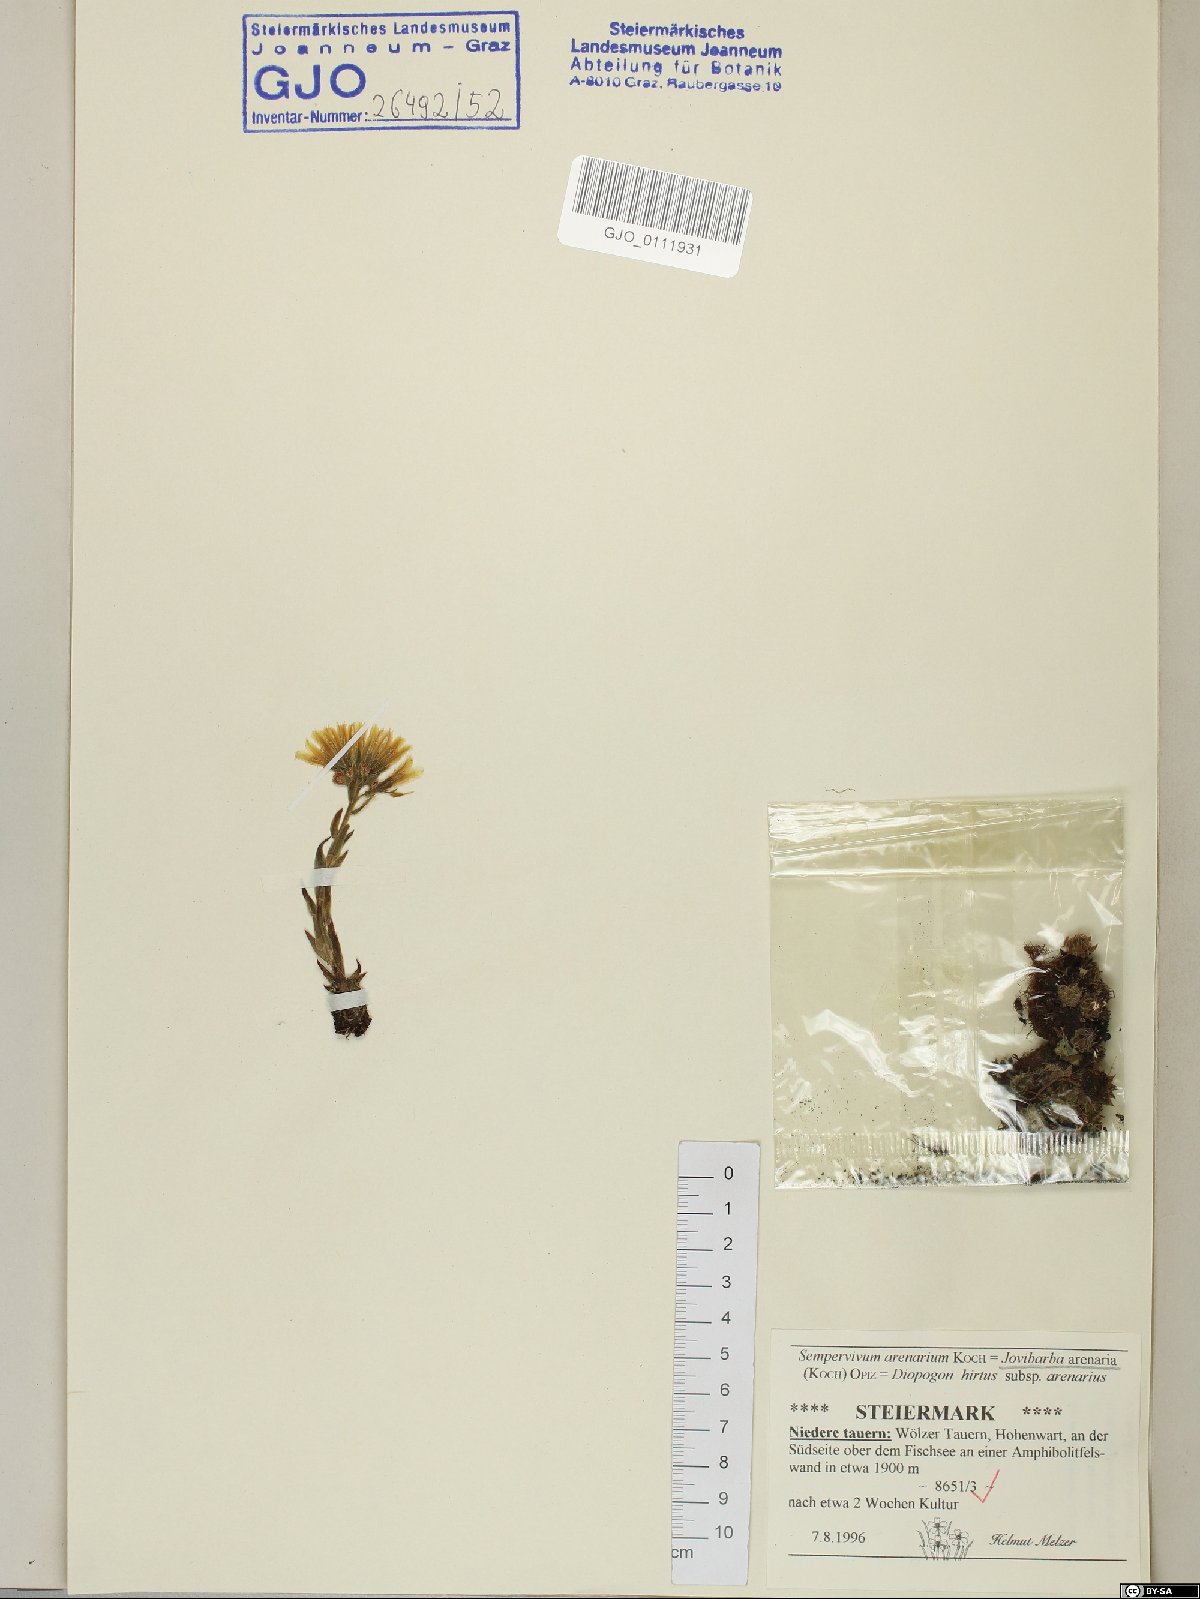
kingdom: Plantae
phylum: Tracheophyta
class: Magnoliopsida
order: Saxifragales
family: Crassulaceae
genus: Sempervivum
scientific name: Sempervivum globiferum
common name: Rolling hen-and-chicks
